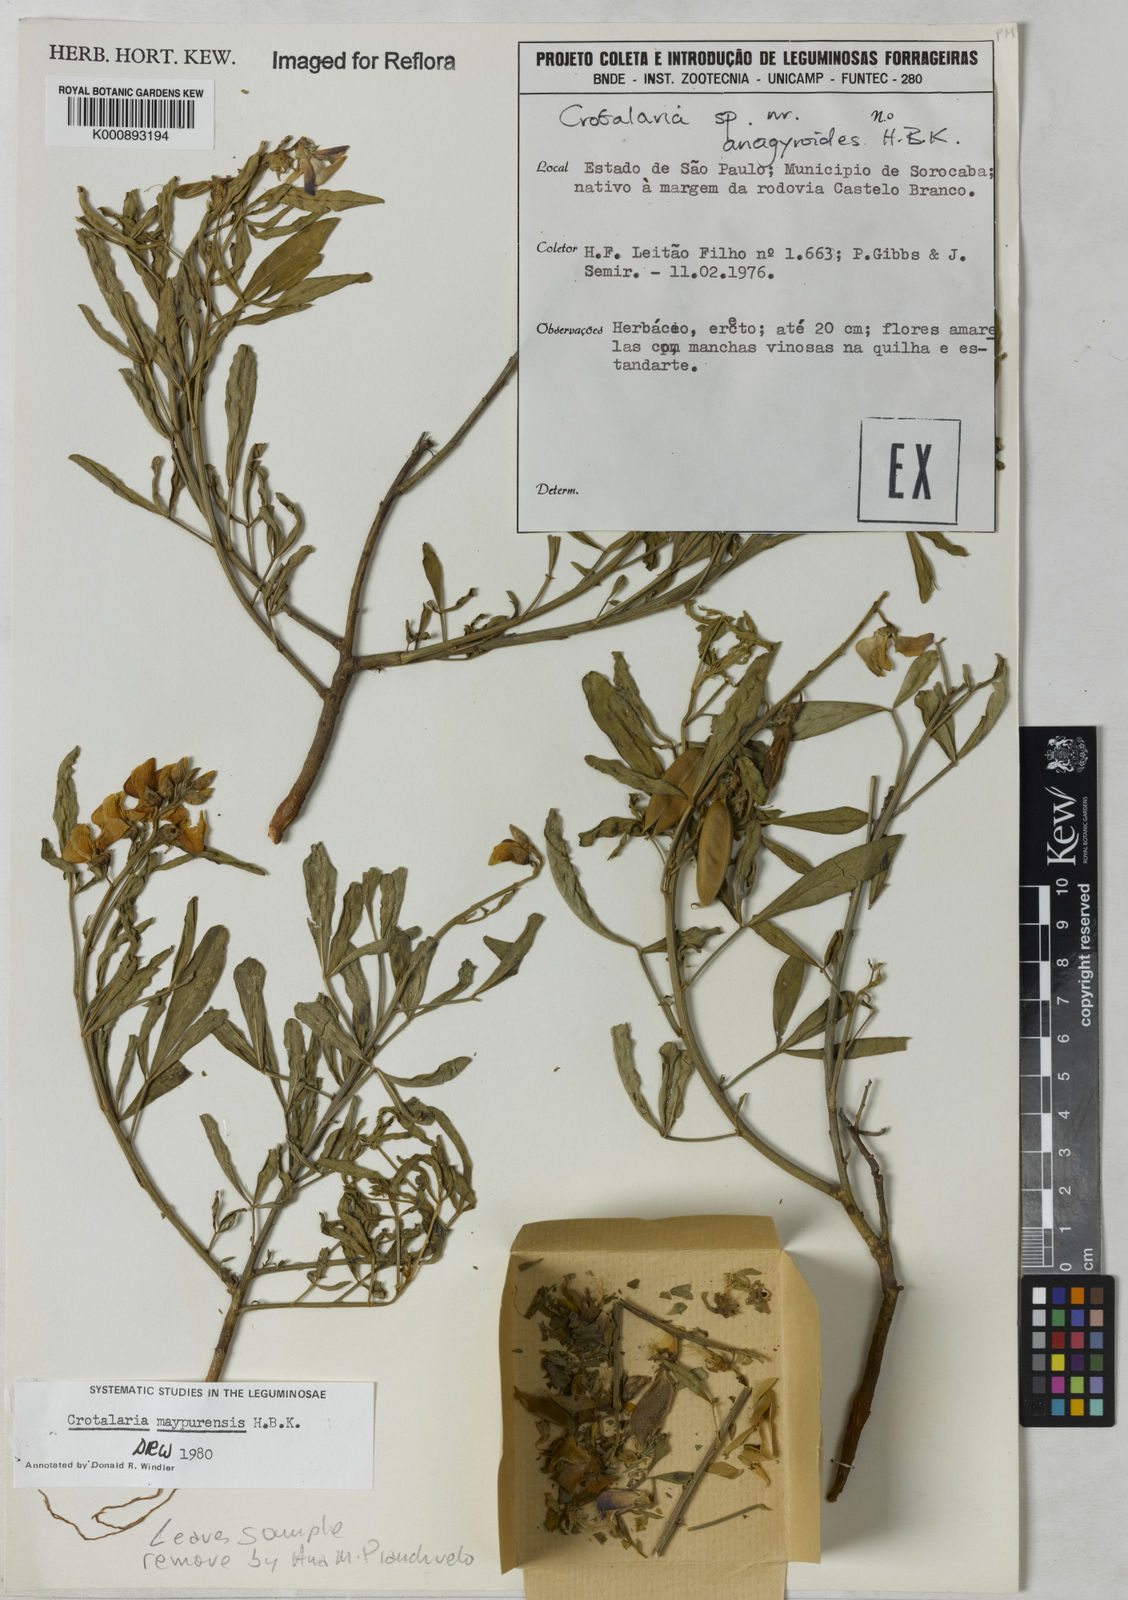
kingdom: Plantae
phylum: Tracheophyta
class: Magnoliopsida
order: Fabales
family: Fabaceae
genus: Crotalaria
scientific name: Crotalaria maypurensis
